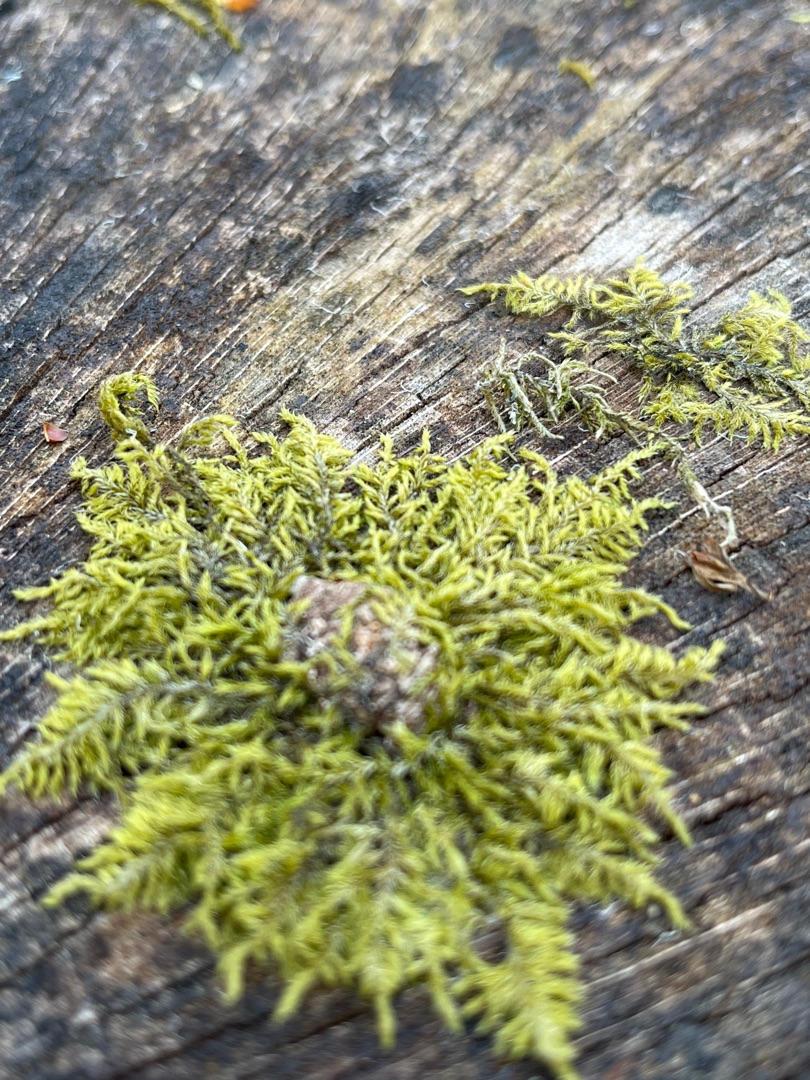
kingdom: Plantae
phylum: Bryophyta
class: Bryopsida
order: Hypnales
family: Hypnaceae
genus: Hypnum
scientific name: Hypnum cupressiforme
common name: Almindelig cypresmos
